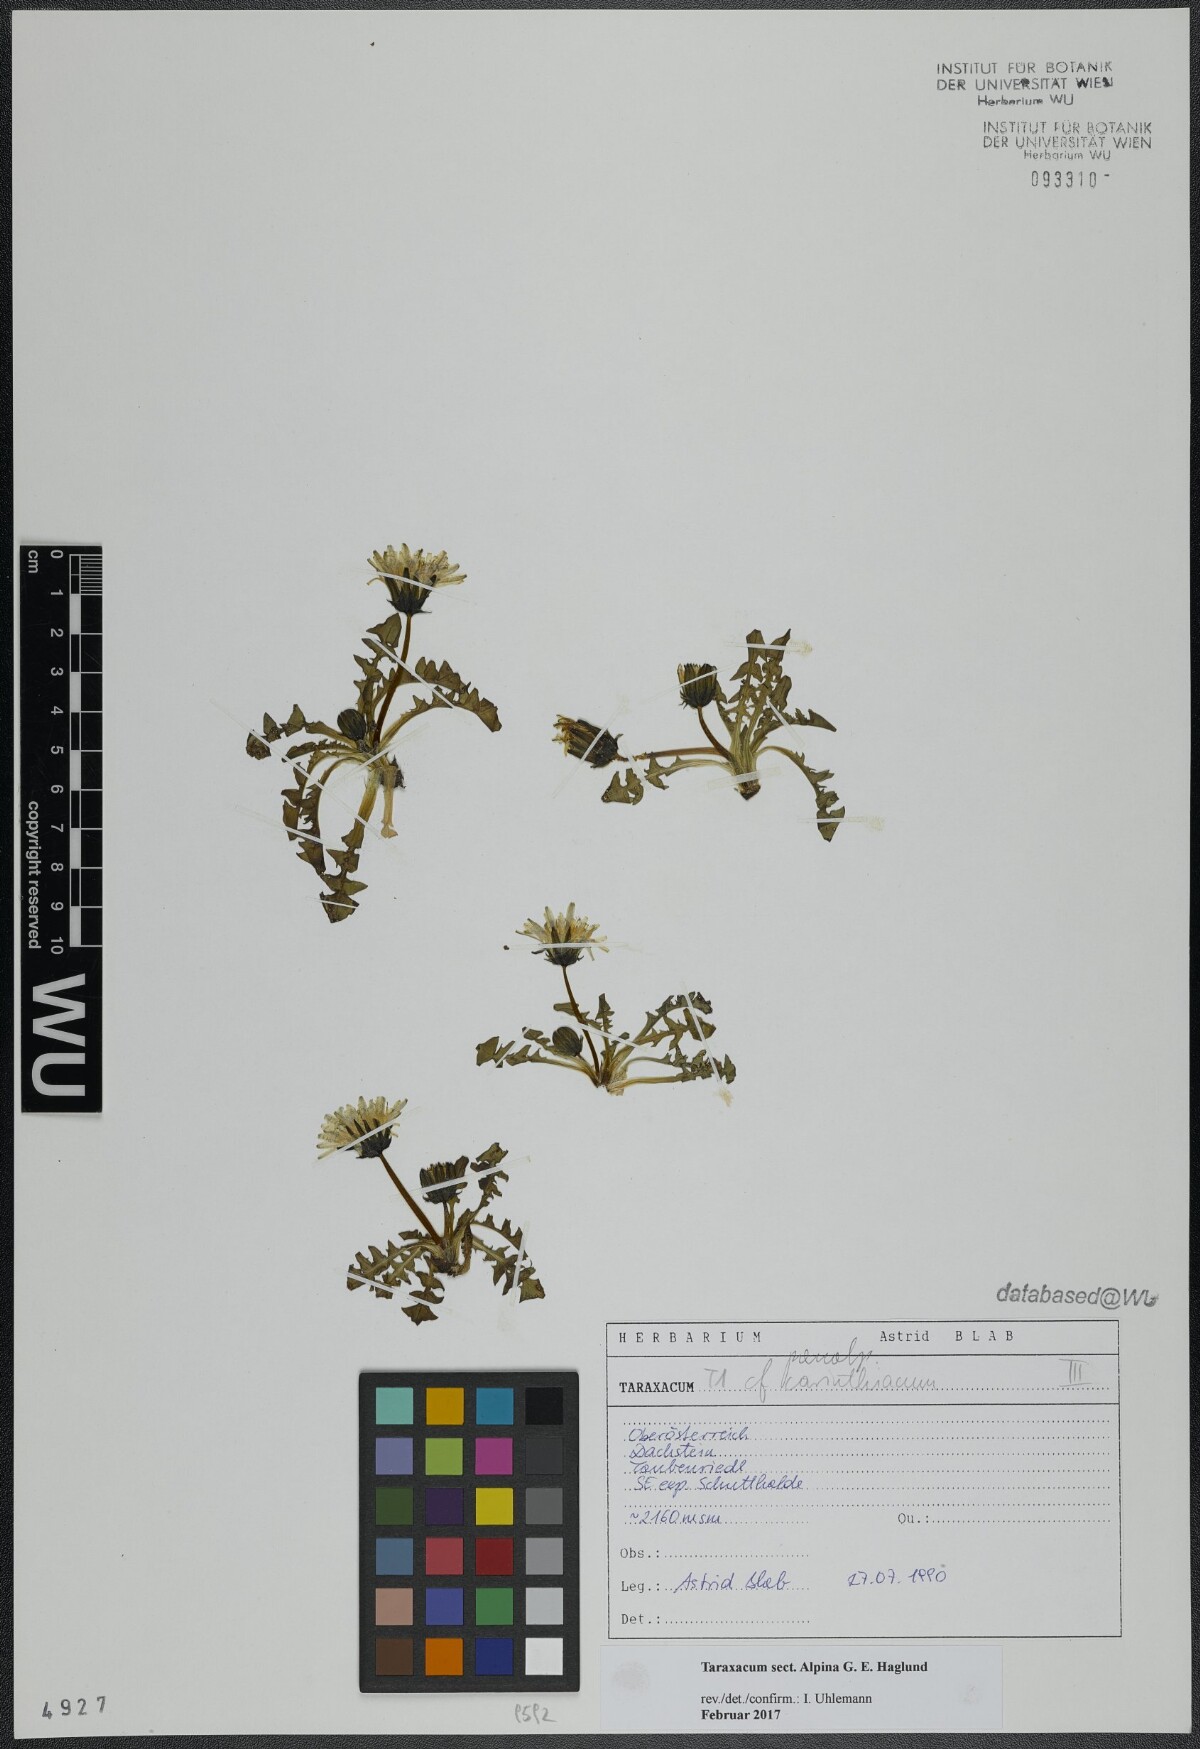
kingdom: Plantae
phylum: Tracheophyta
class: Magnoliopsida
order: Asterales
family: Asteraceae
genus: Taraxacum
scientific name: Taraxacum
